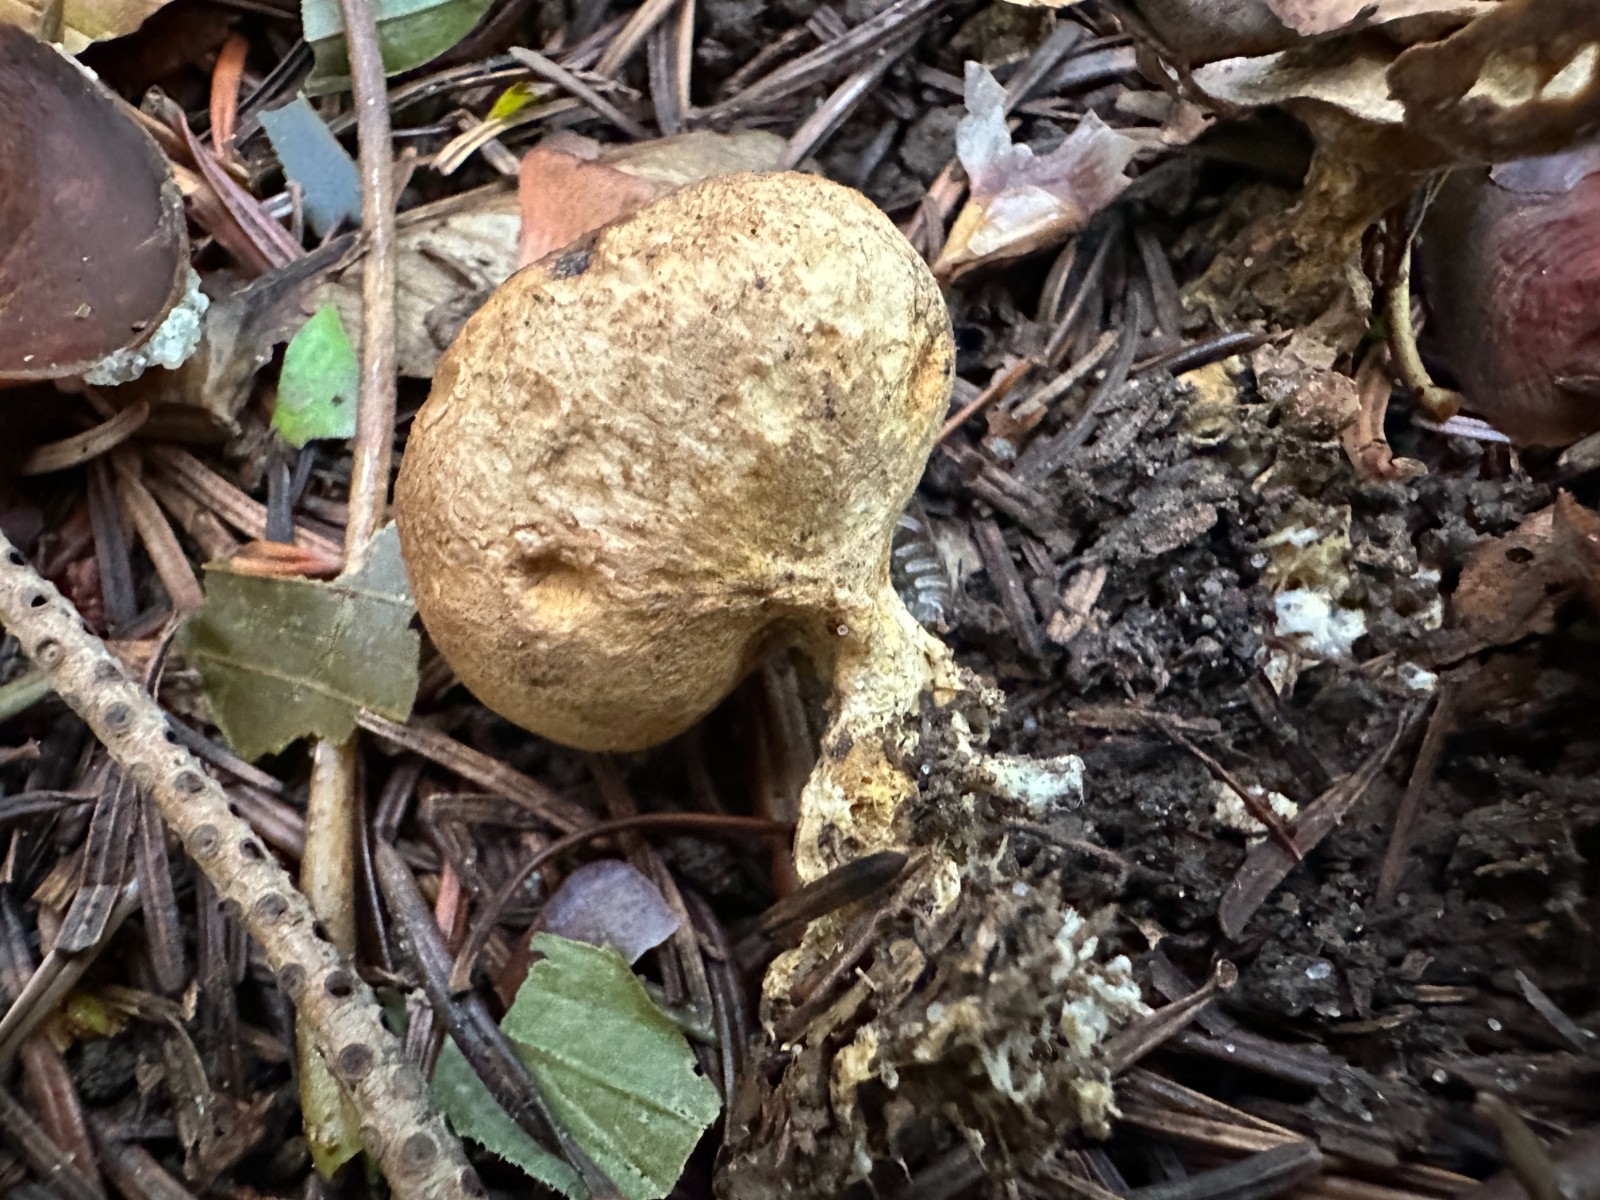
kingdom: Fungi
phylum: Basidiomycota
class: Agaricomycetes
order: Boletales
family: Sclerodermataceae
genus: Scleroderma
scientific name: Scleroderma verrucosum
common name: stilket bruskbold
